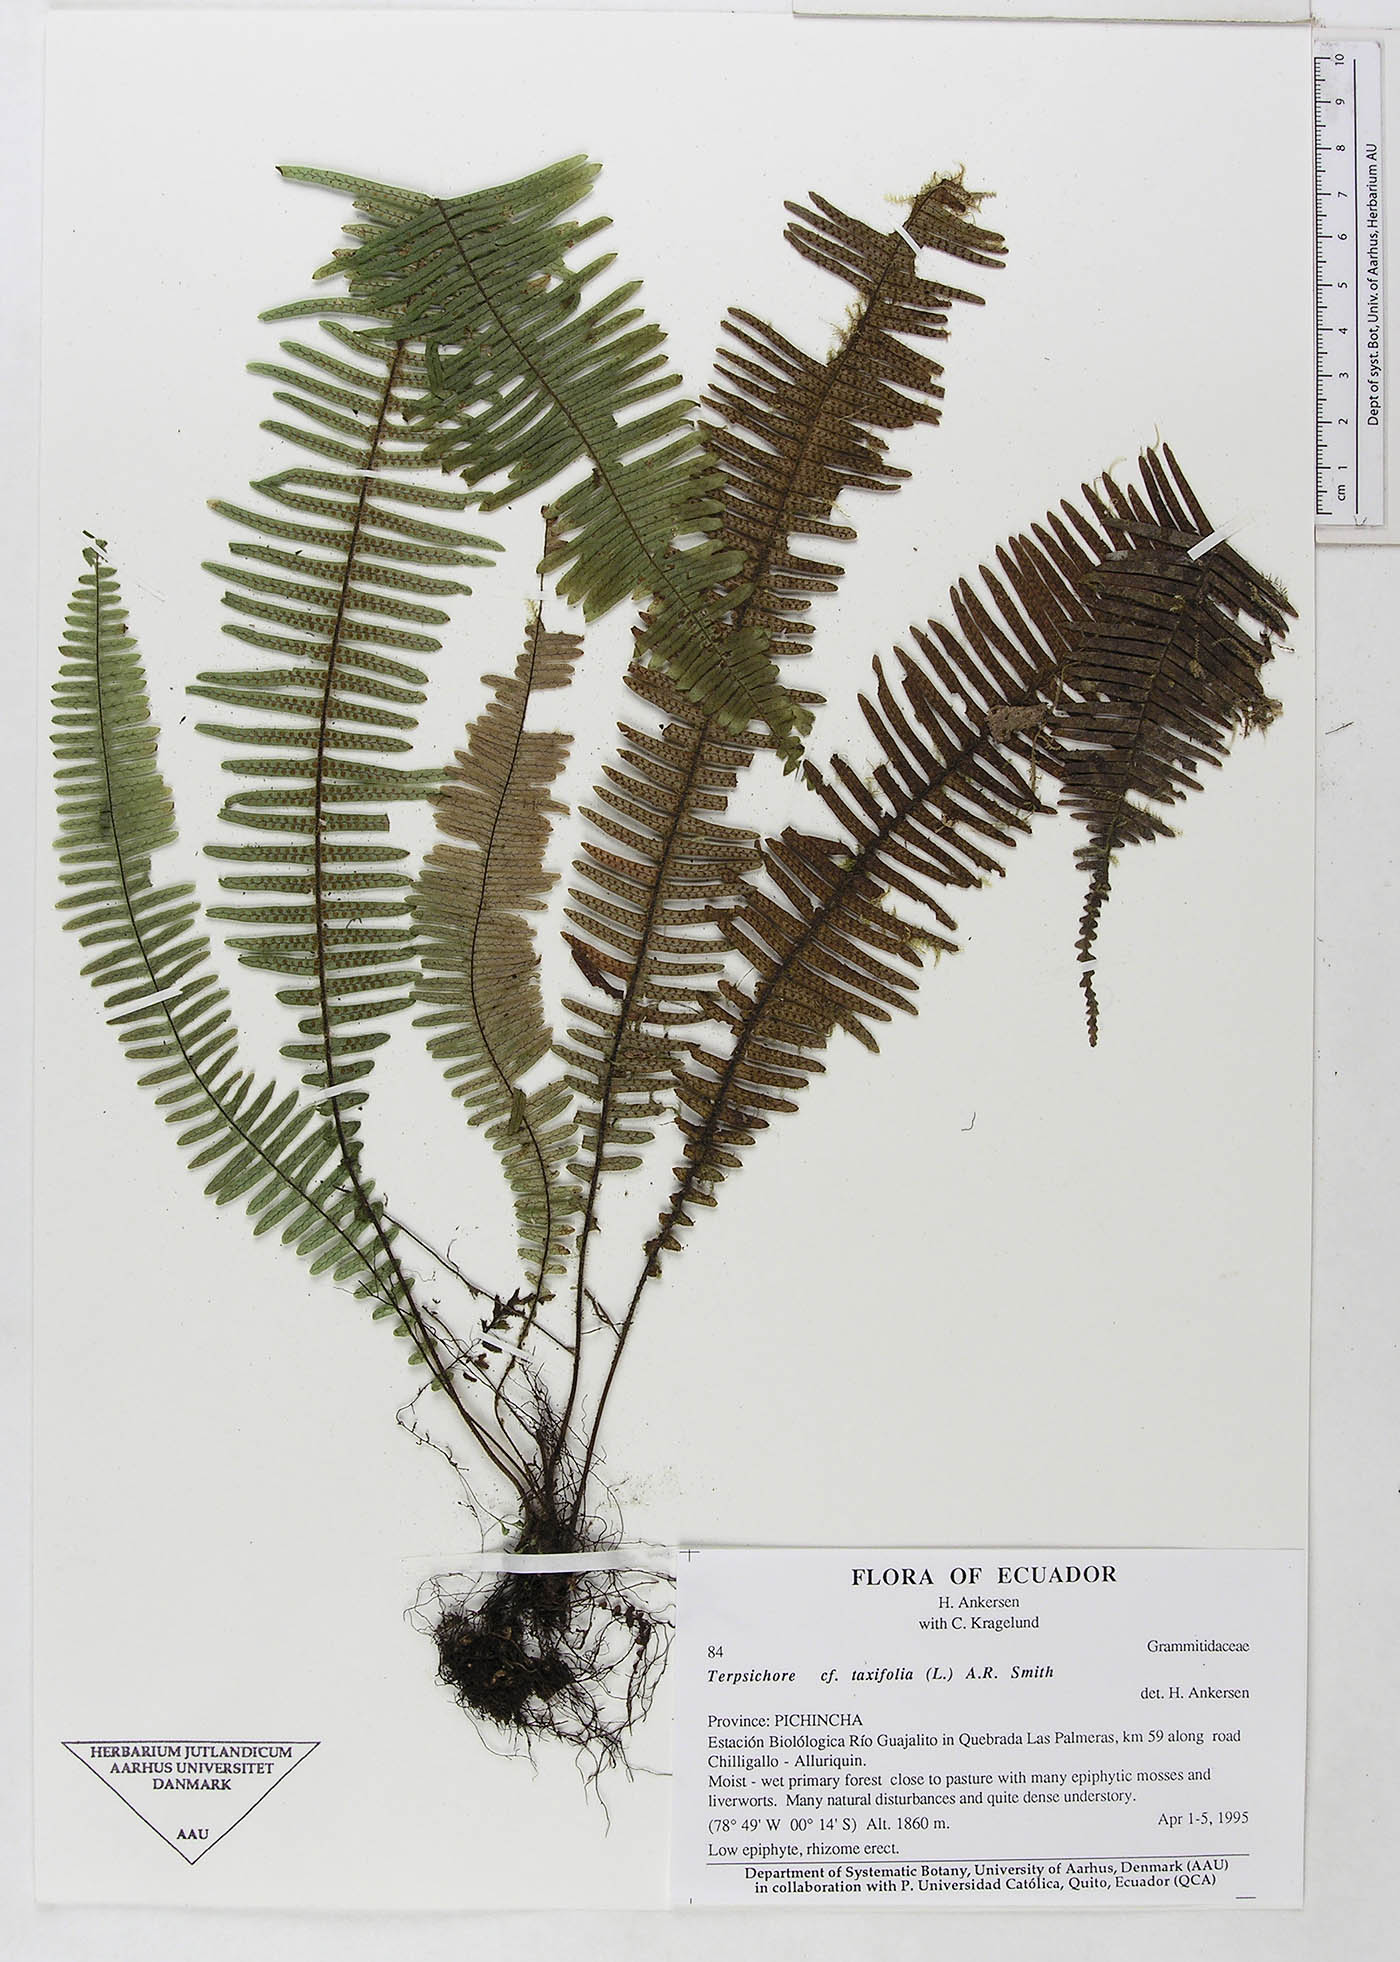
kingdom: Plantae
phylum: Tracheophyta
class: Polypodiopsida
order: Polypodiales
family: Polypodiaceae
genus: Mycopteris
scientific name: Mycopteris taxifolia
